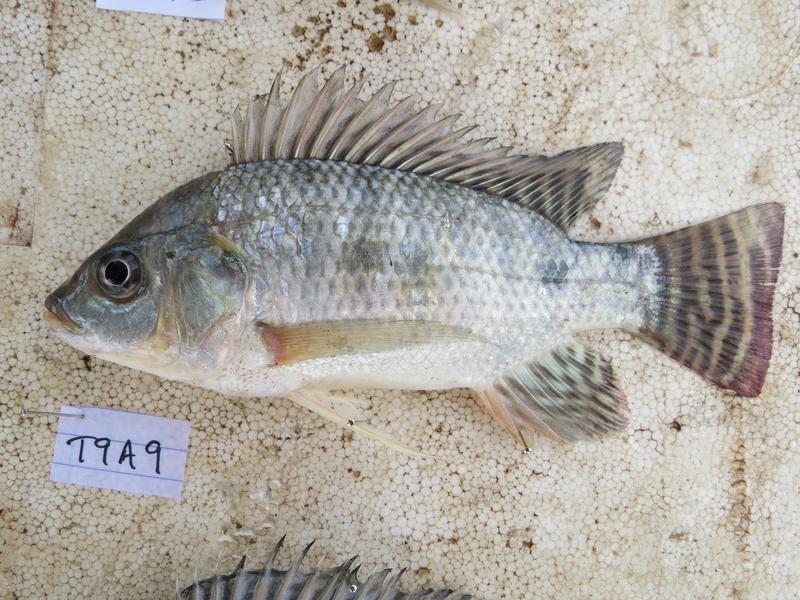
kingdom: Animalia
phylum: Chordata
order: Perciformes
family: Cichlidae
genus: Oreochromis
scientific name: Oreochromis
